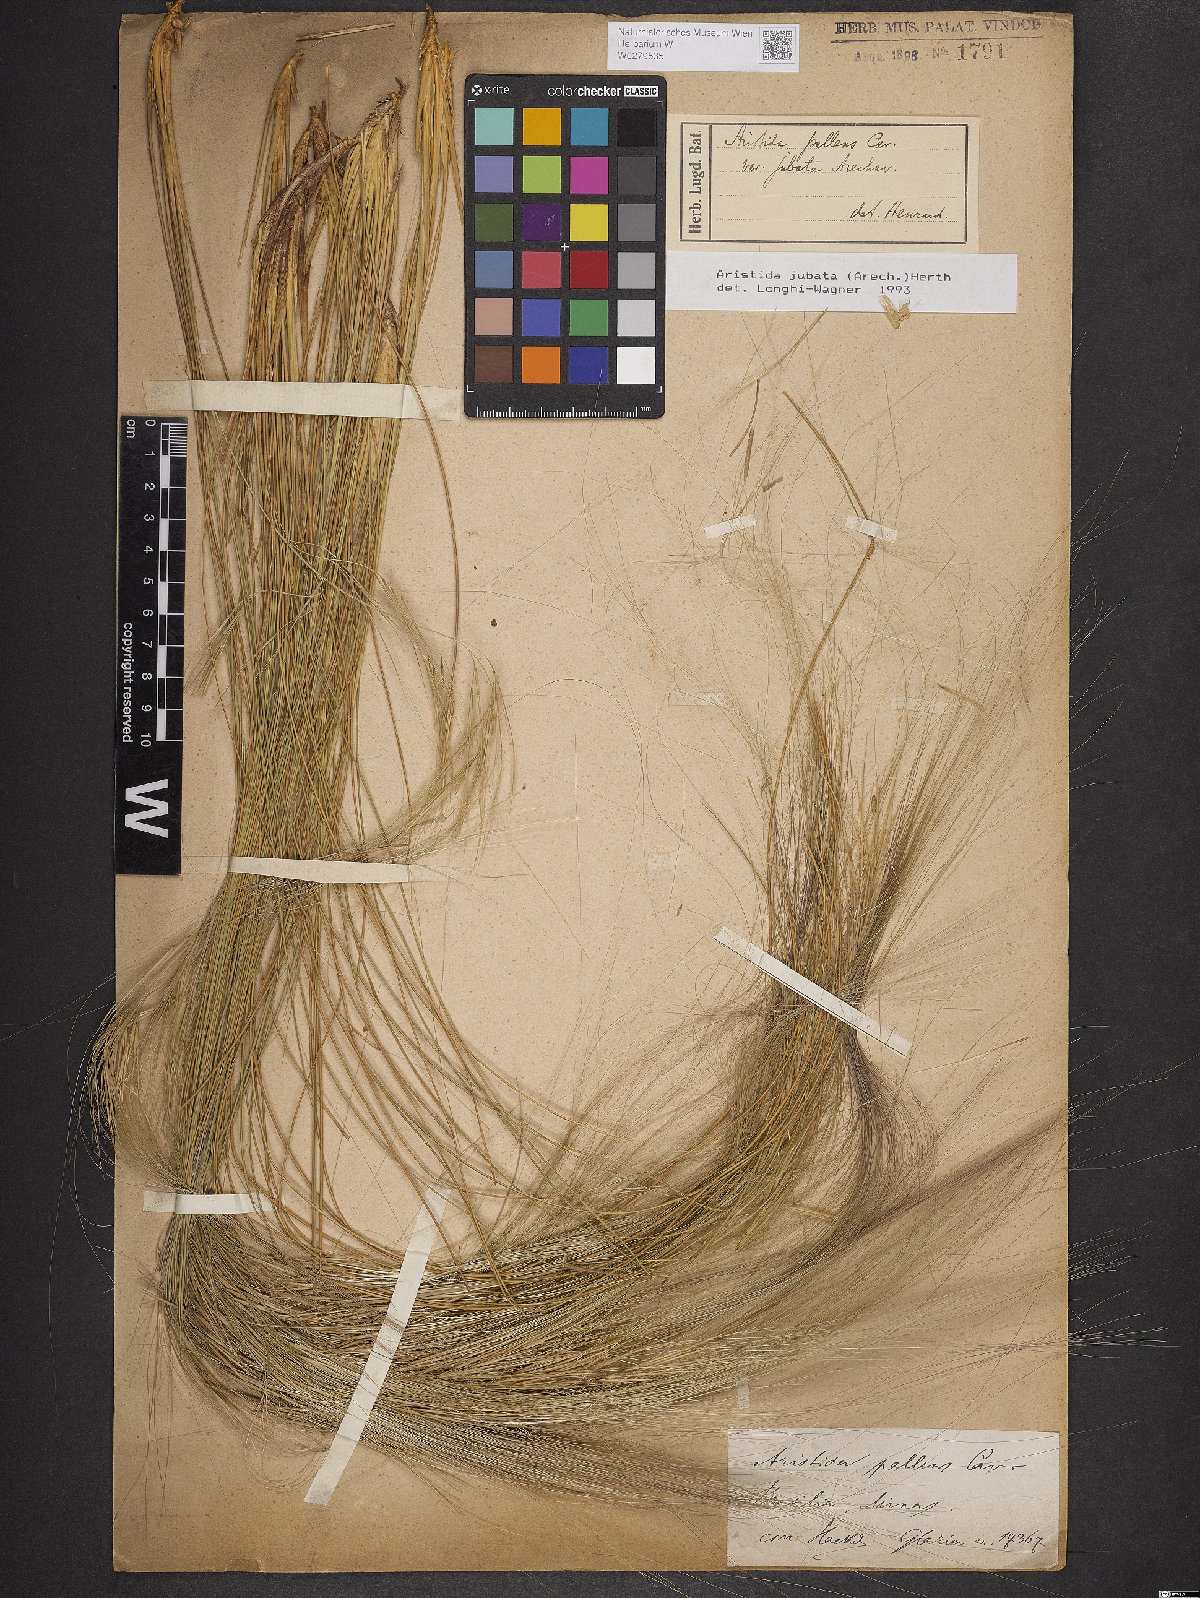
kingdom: Plantae
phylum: Tracheophyta
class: Liliopsida
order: Poales
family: Poaceae
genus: Aristida
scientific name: Aristida jubata
